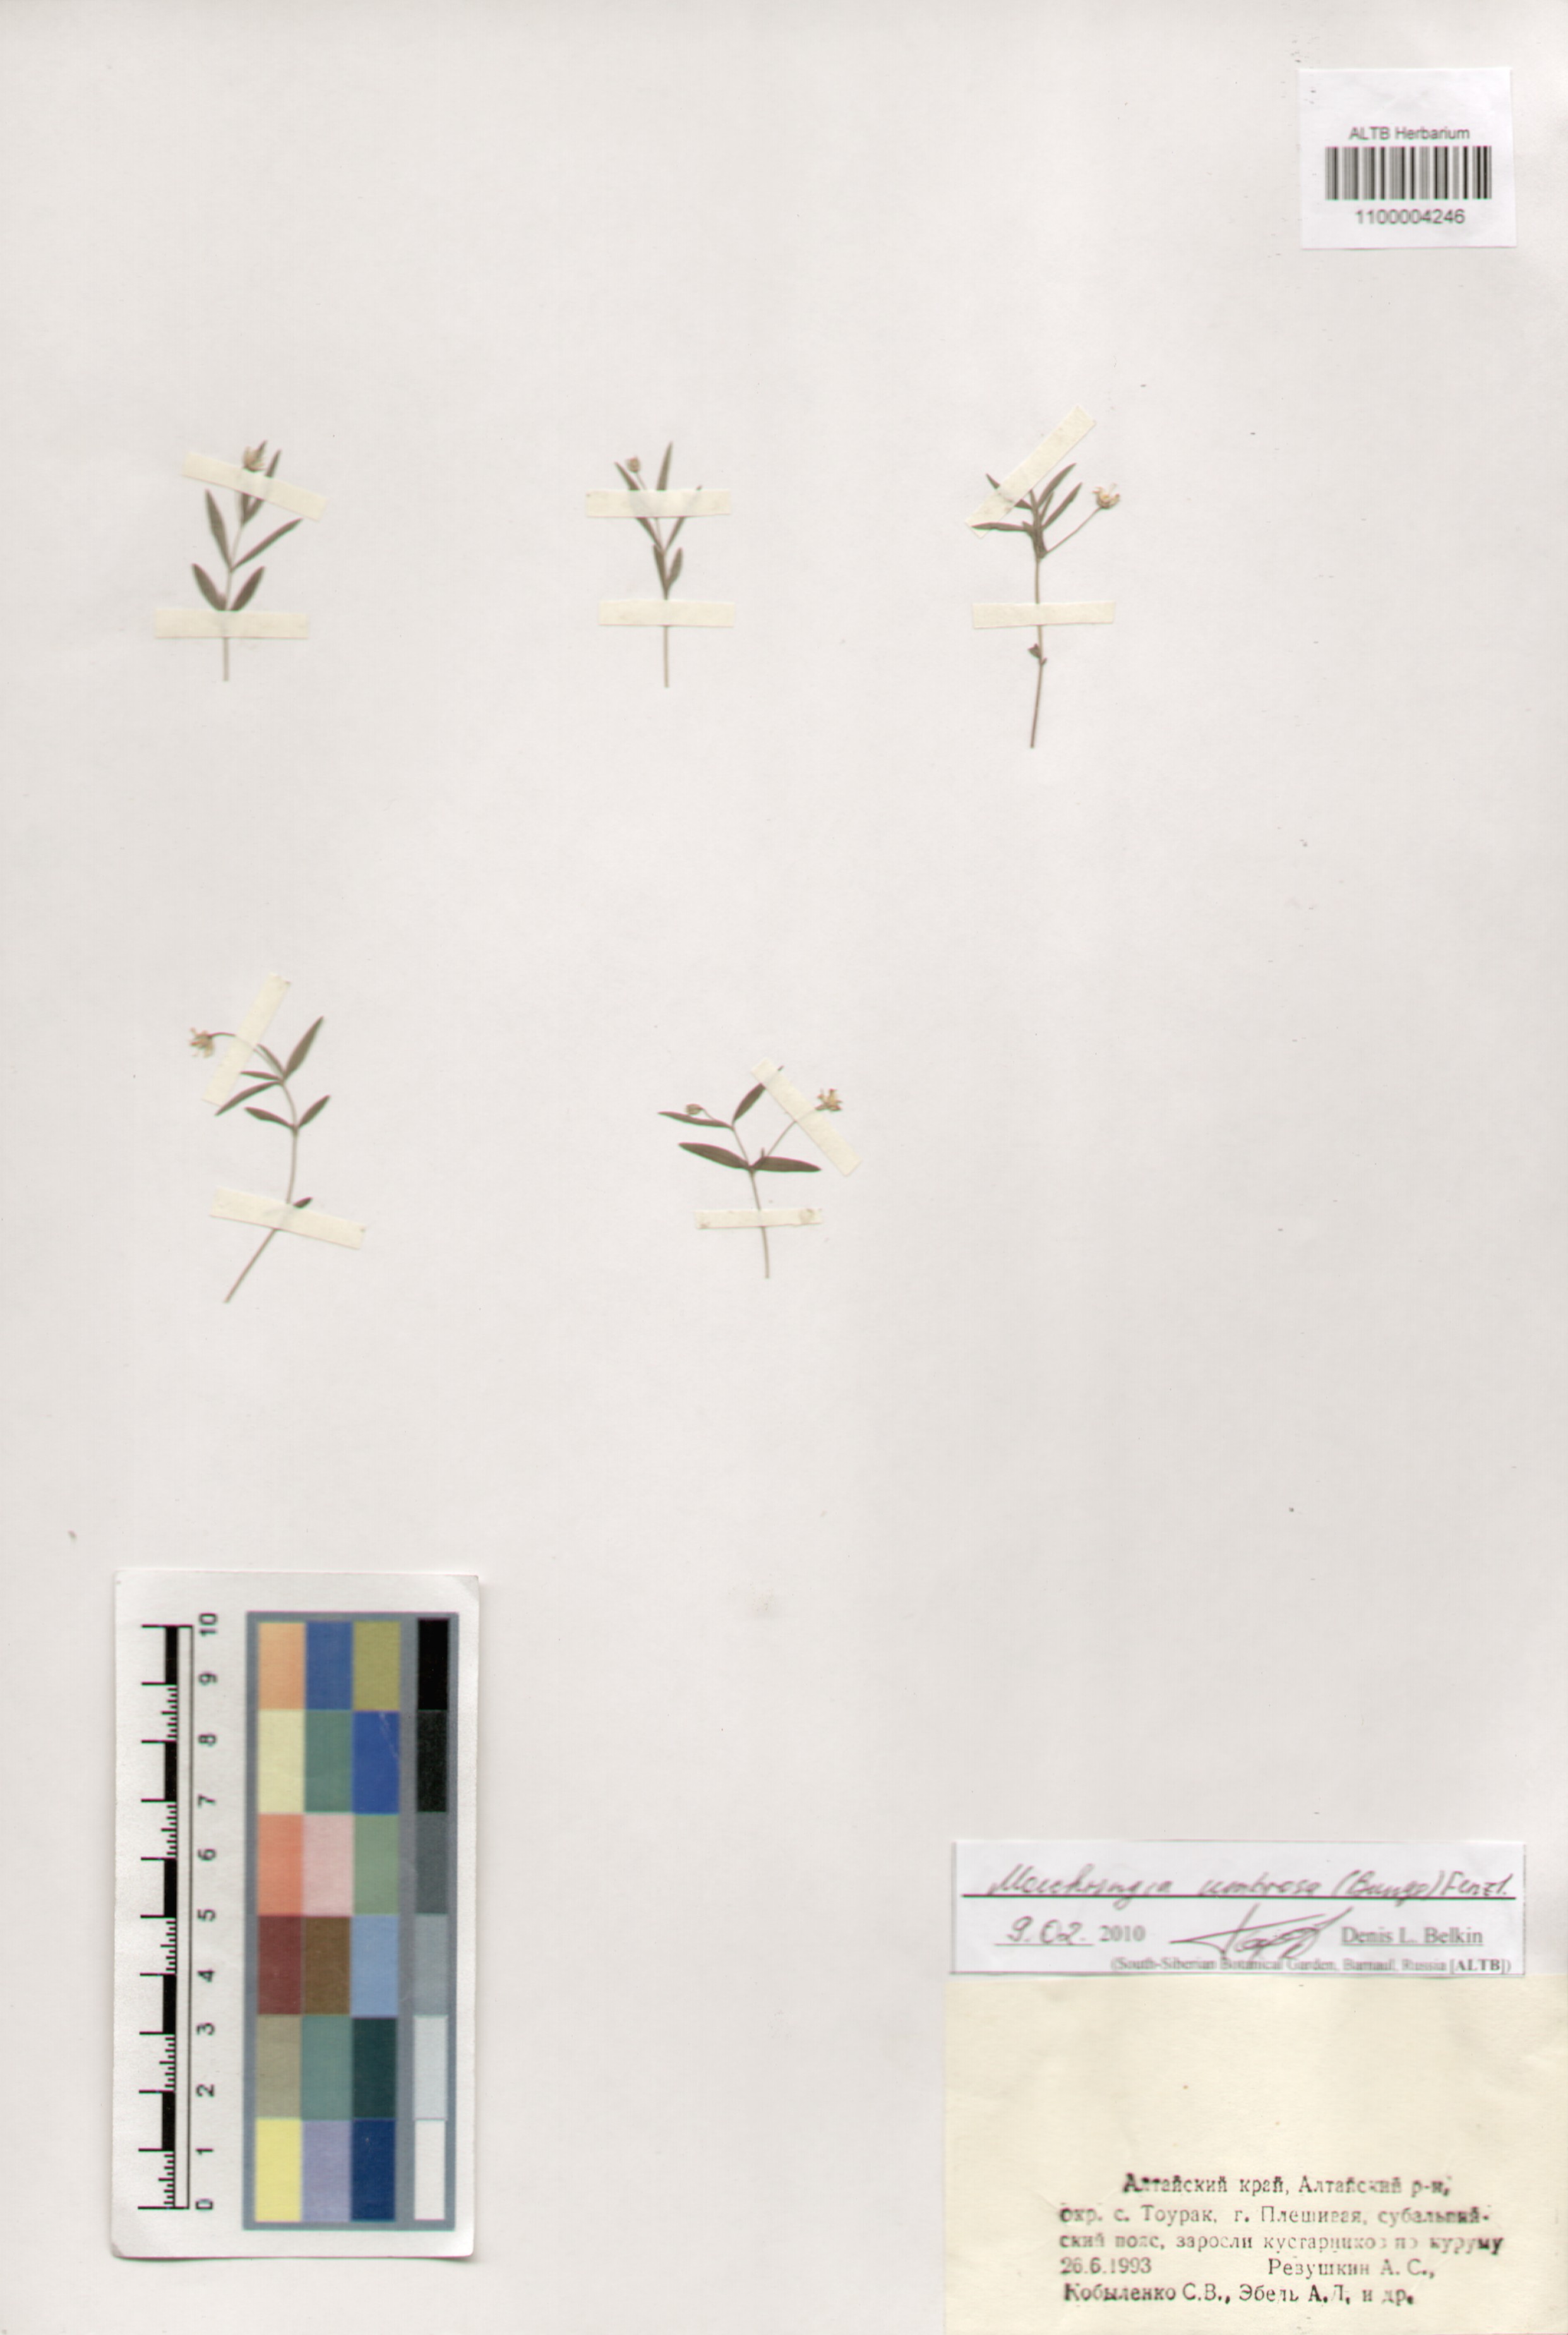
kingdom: Plantae
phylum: Tracheophyta
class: Magnoliopsida
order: Caryophyllales
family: Caryophyllaceae
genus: Silene
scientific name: Silene amoena
